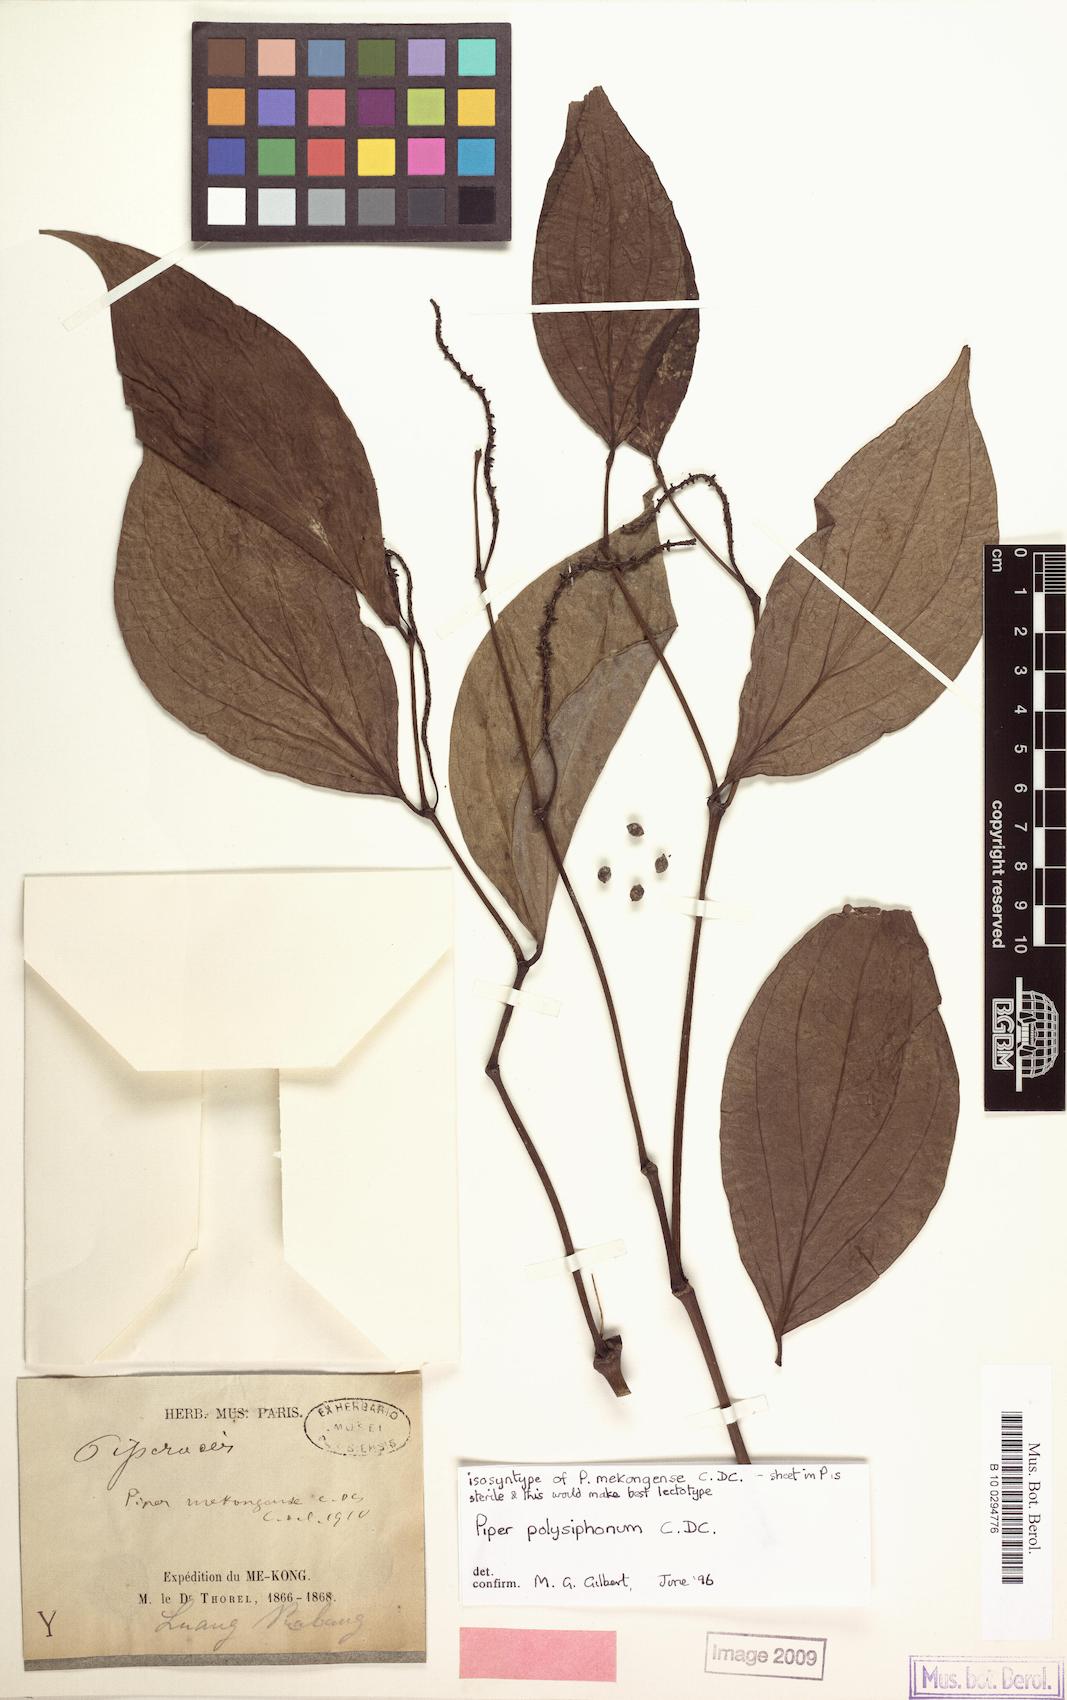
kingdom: Plantae
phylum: Tracheophyta
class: Magnoliopsida
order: Piperales
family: Piperaceae
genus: Piper
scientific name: Piper polysyphonum
